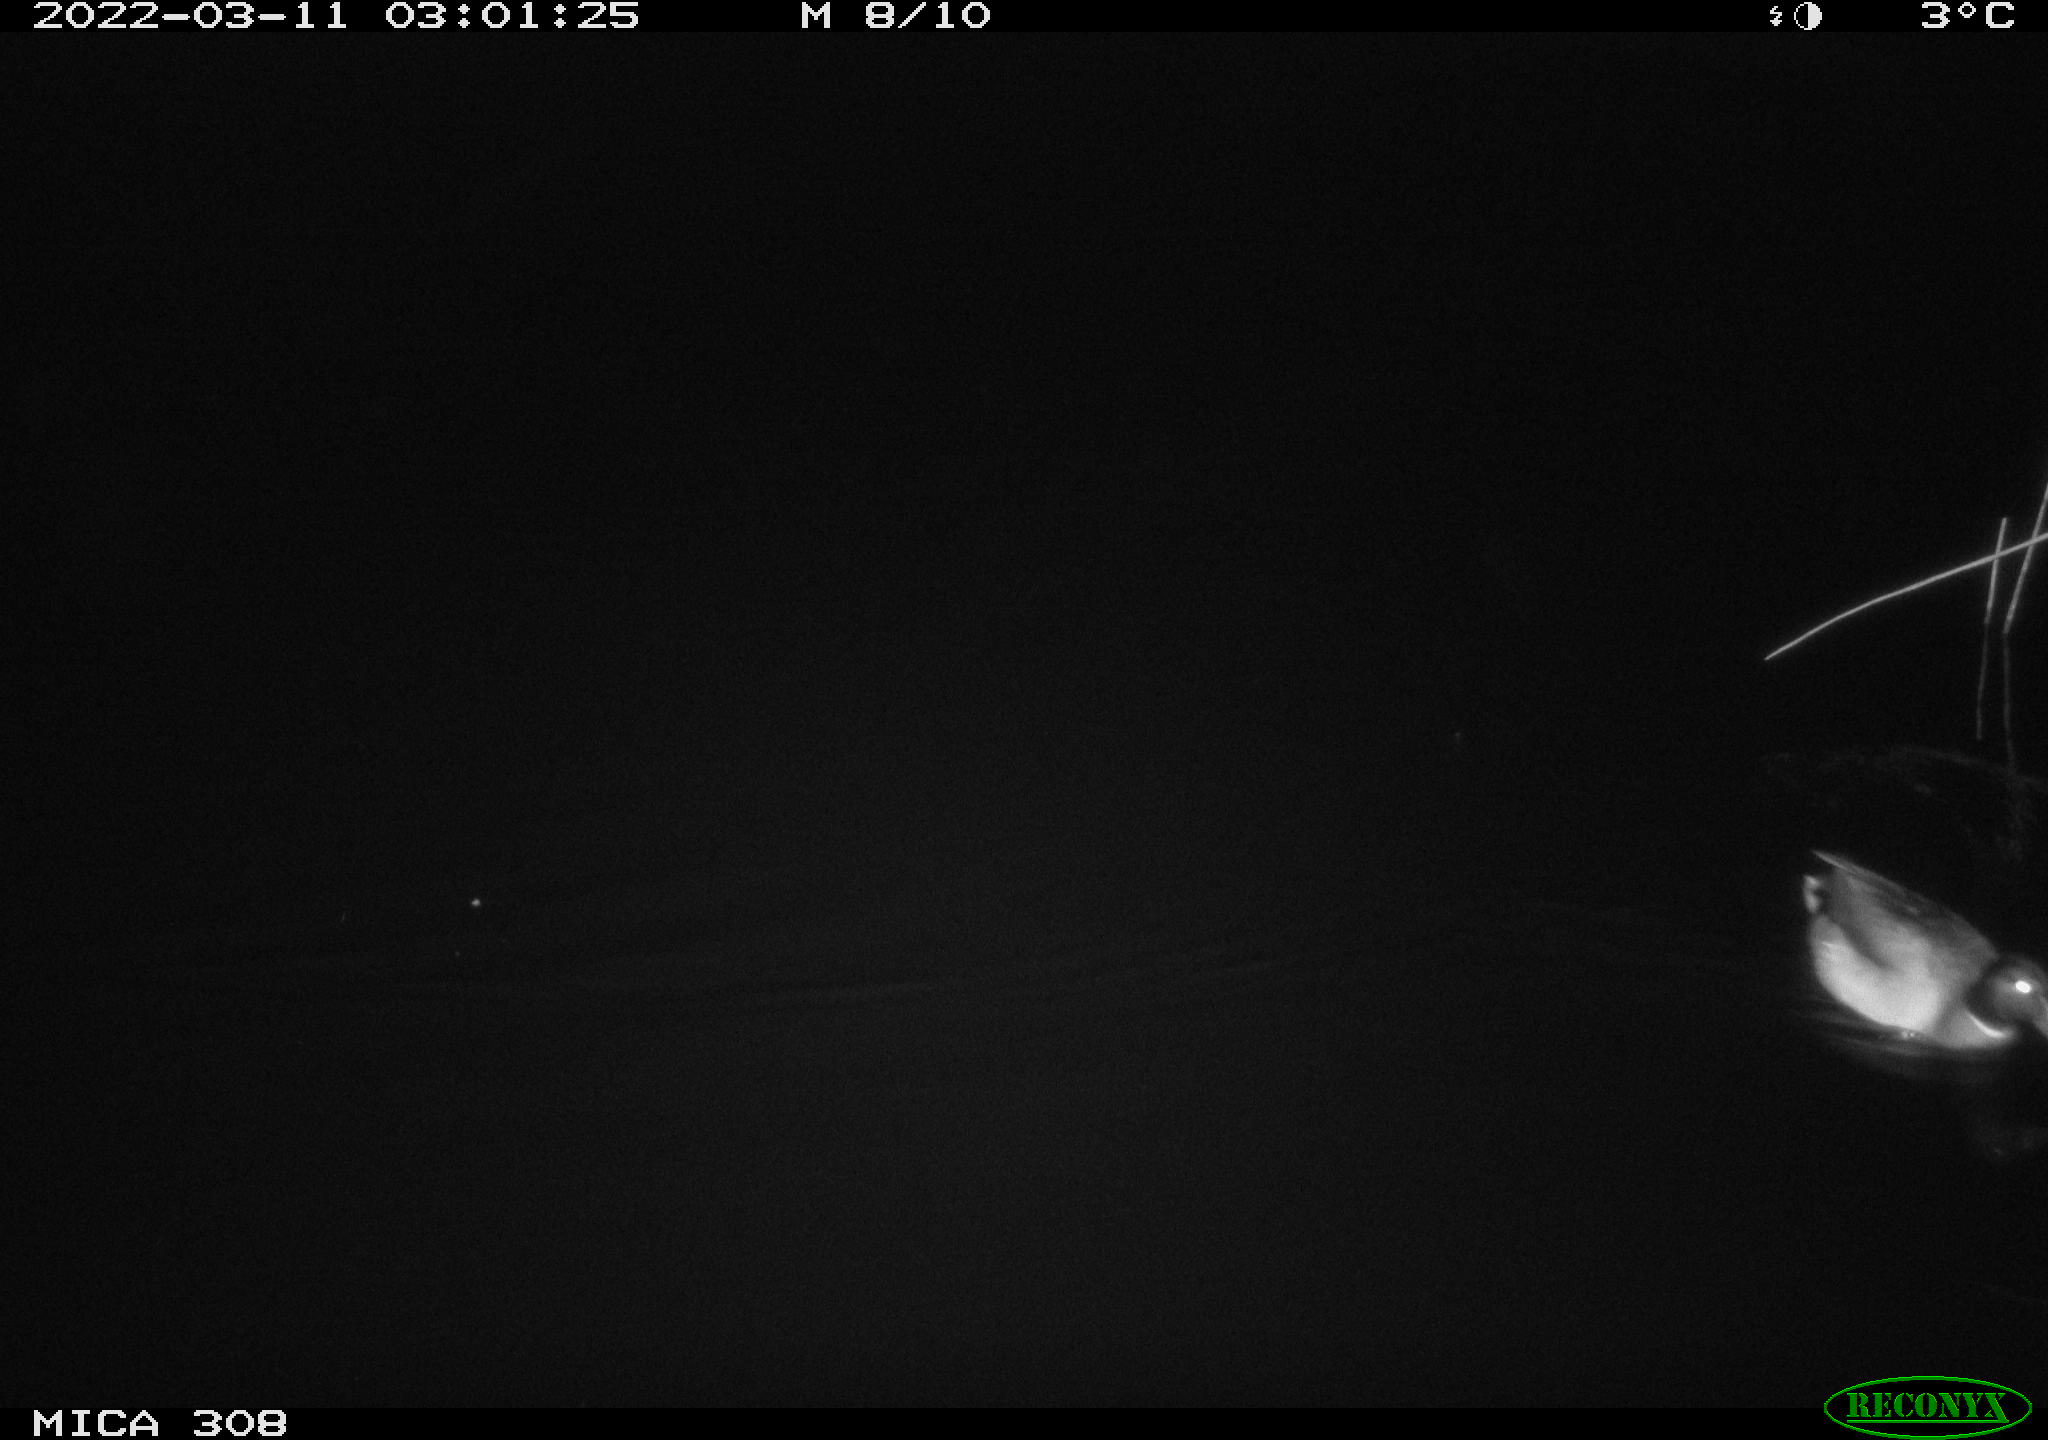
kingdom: Animalia
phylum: Chordata
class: Aves
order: Gruiformes
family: Rallidae
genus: Gallinula
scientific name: Gallinula chloropus
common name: Common moorhen
